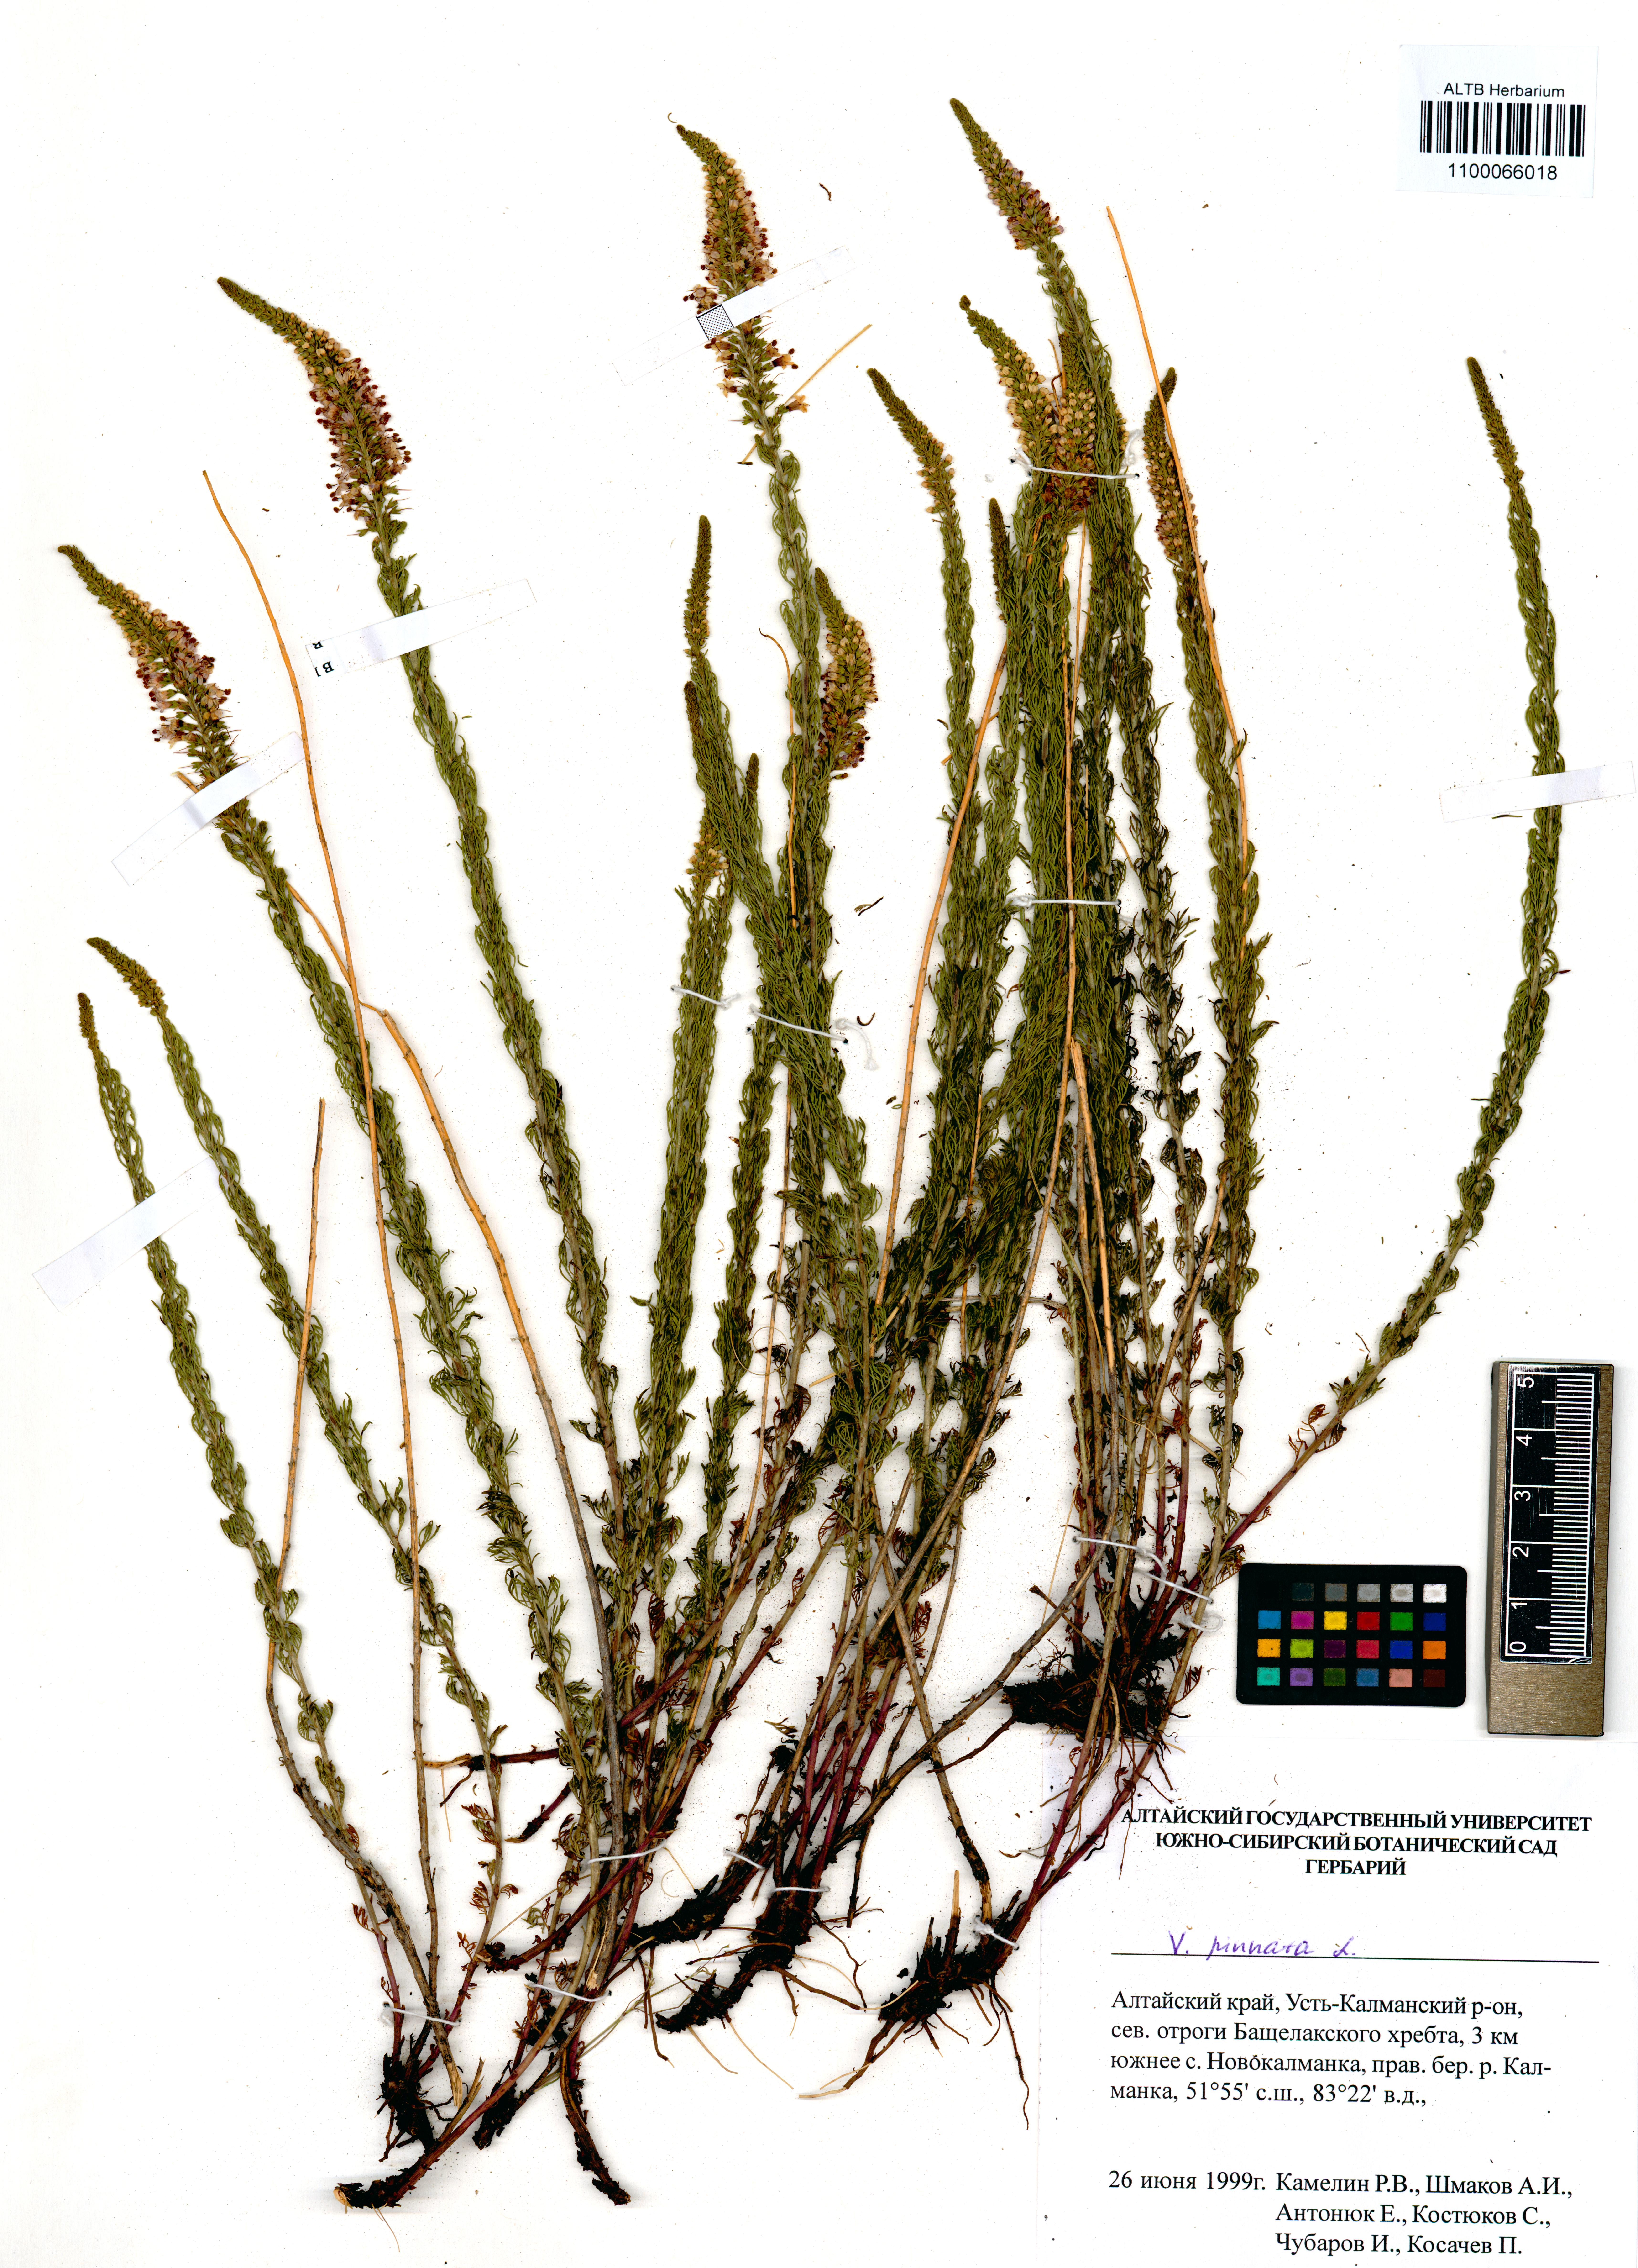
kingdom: Plantae
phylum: Tracheophyta
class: Magnoliopsida
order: Lamiales
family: Plantaginaceae
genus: Veronica
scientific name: Veronica pinnata
